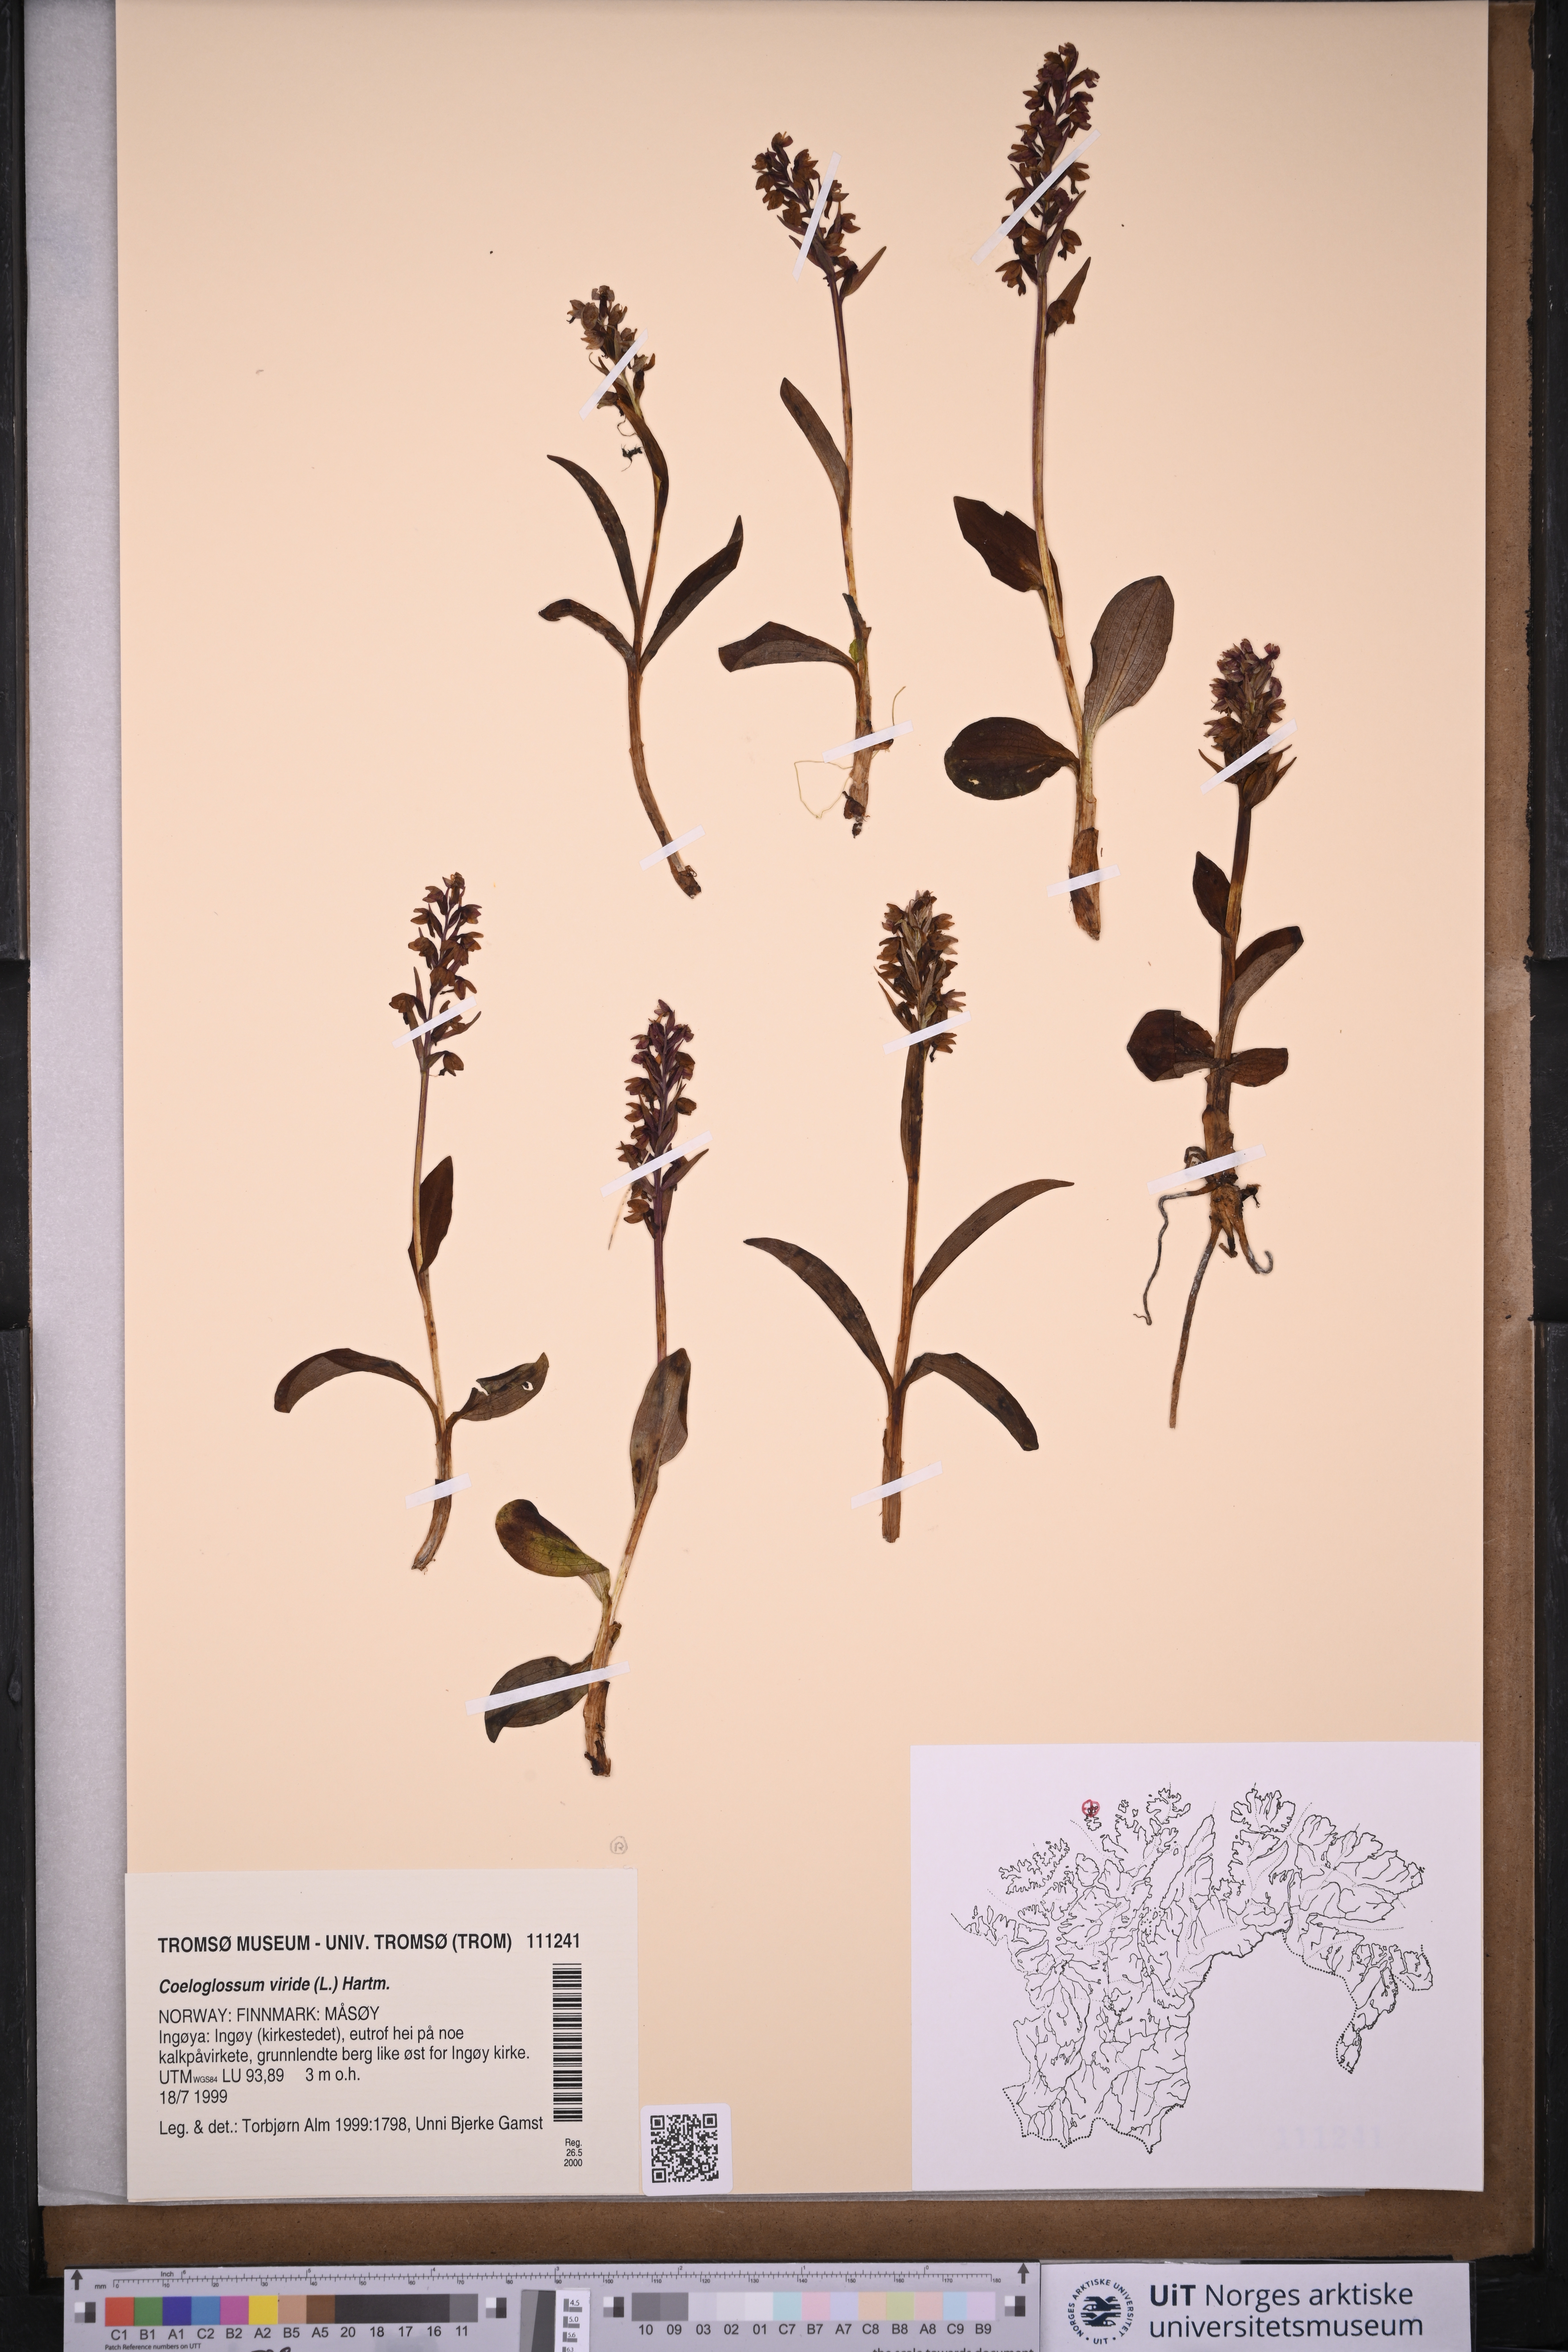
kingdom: Plantae
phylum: Tracheophyta
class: Liliopsida
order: Asparagales
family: Orchidaceae
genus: Dactylorhiza
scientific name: Dactylorhiza viridis
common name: Longbract frog orchid
